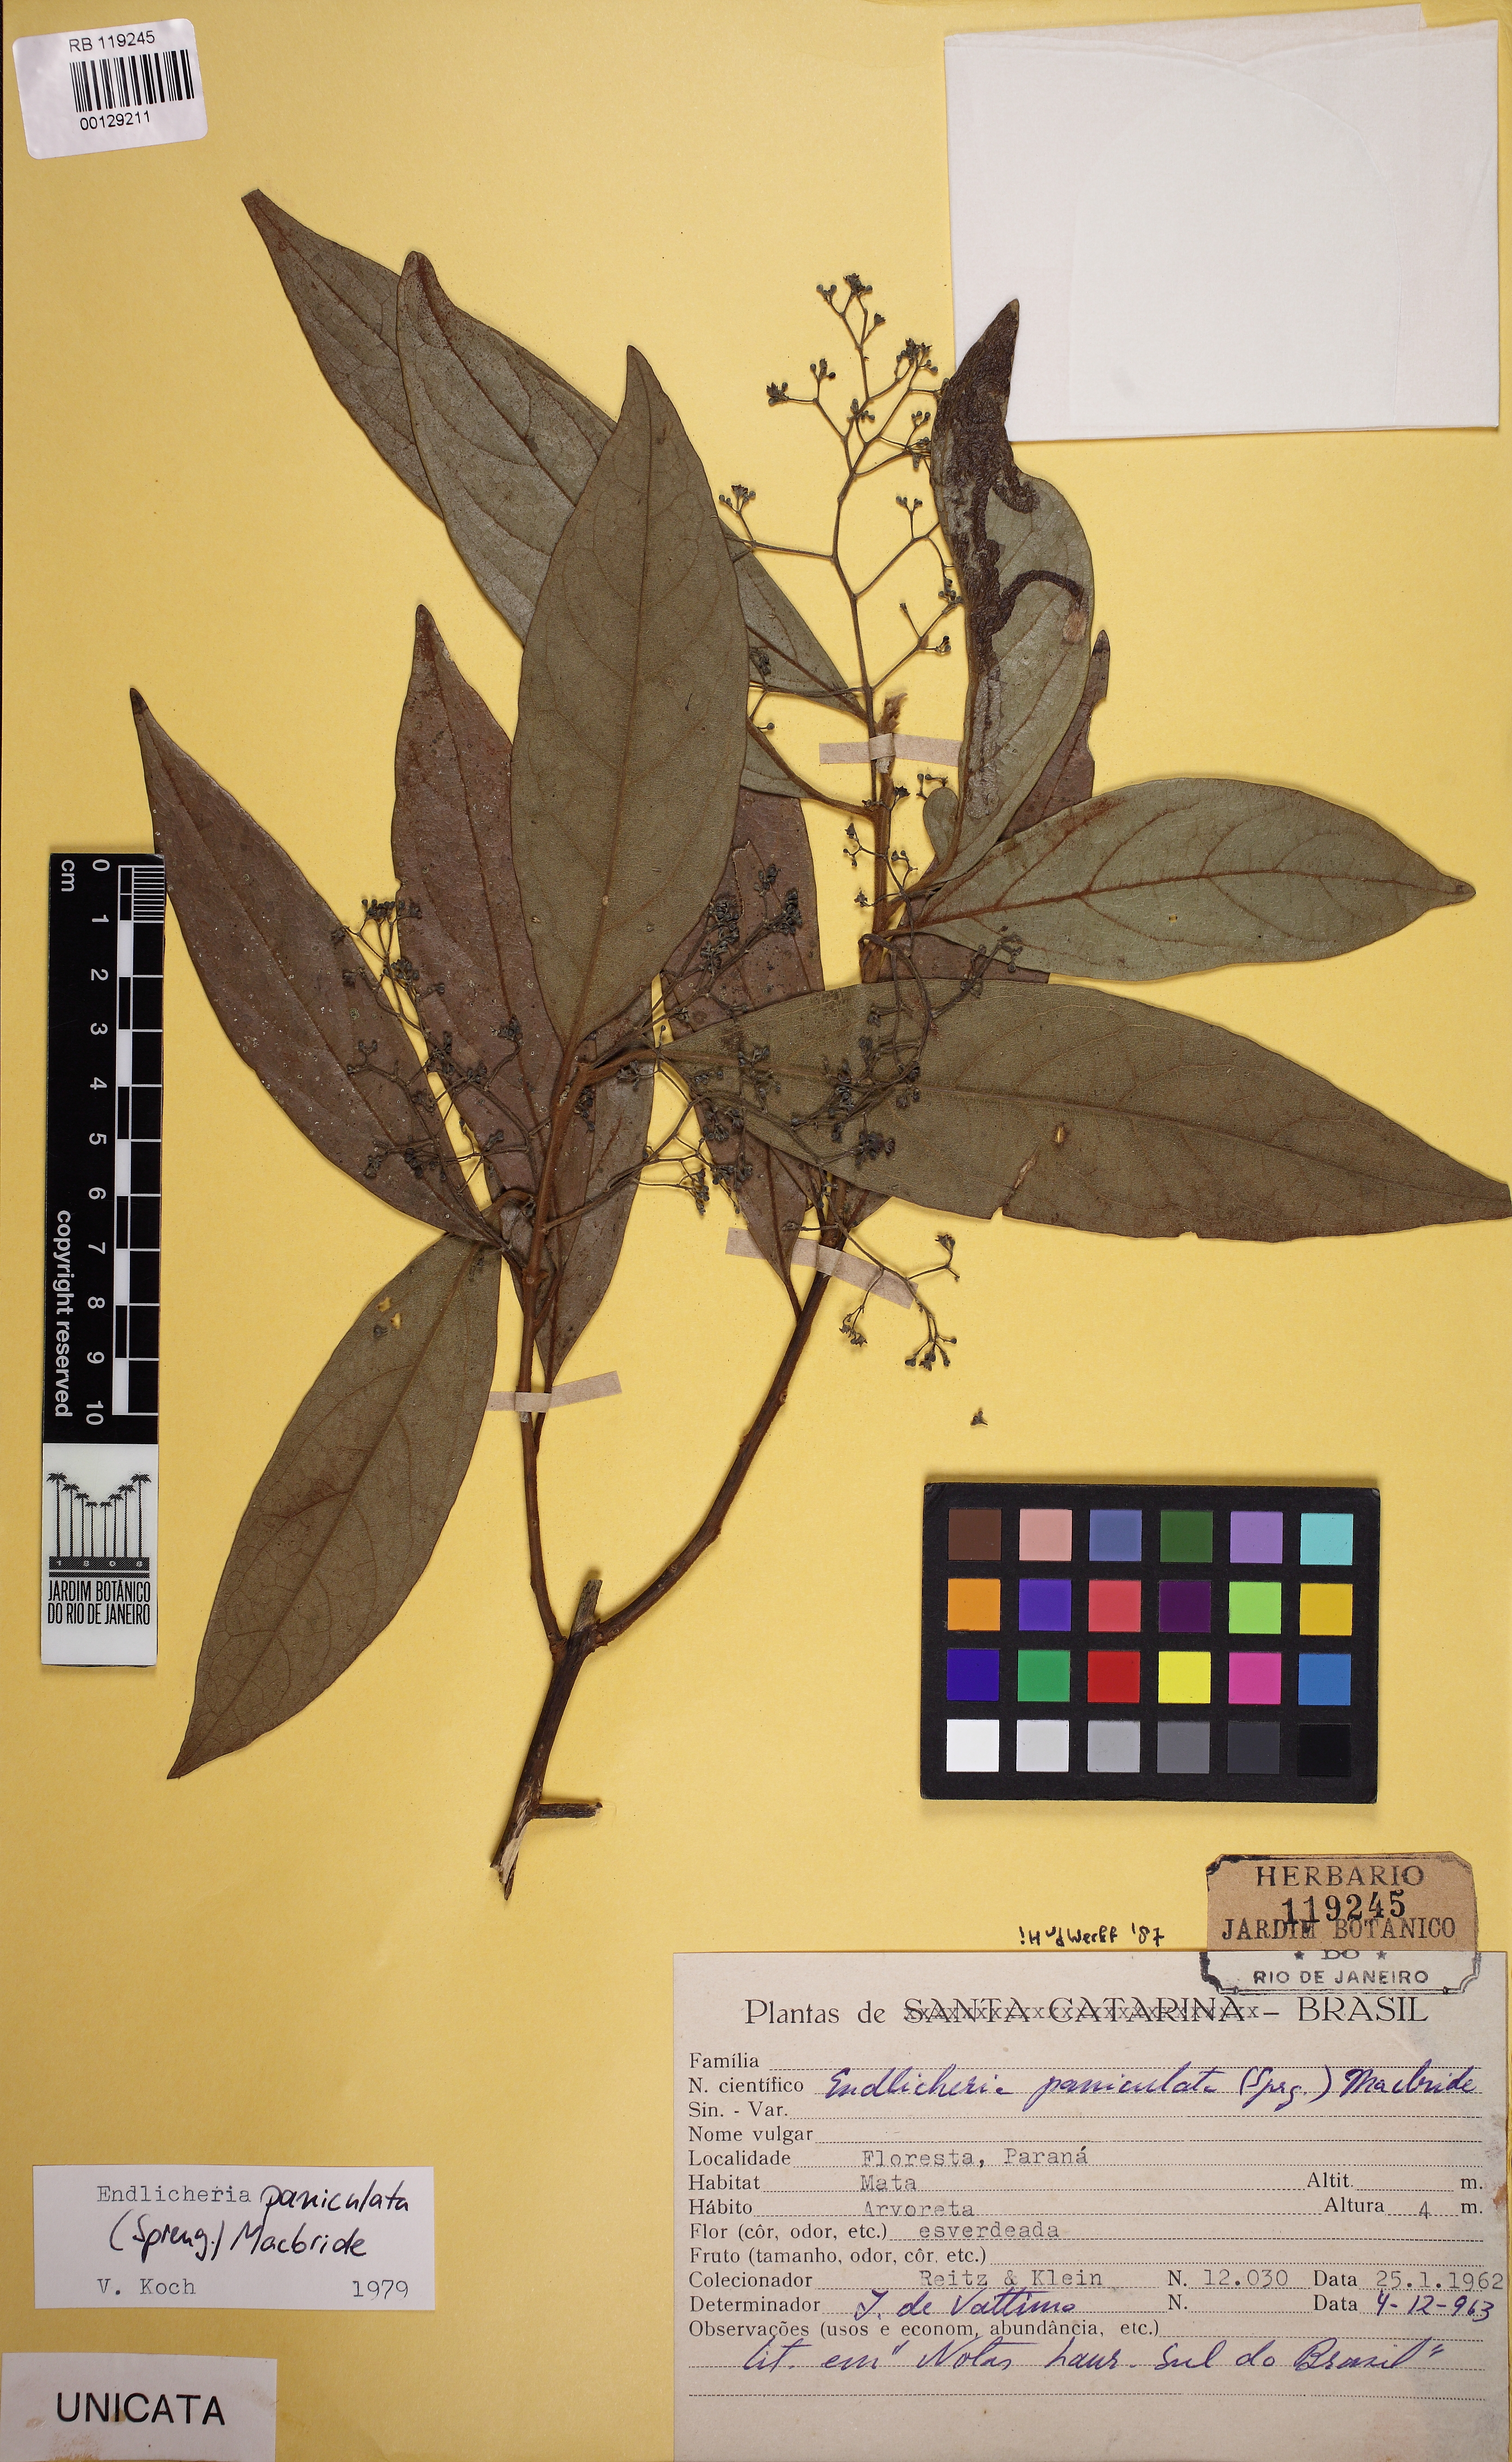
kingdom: Plantae
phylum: Tracheophyta
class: Magnoliopsida
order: Laurales
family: Lauraceae
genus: Endlicheria
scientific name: Endlicheria paniculata
